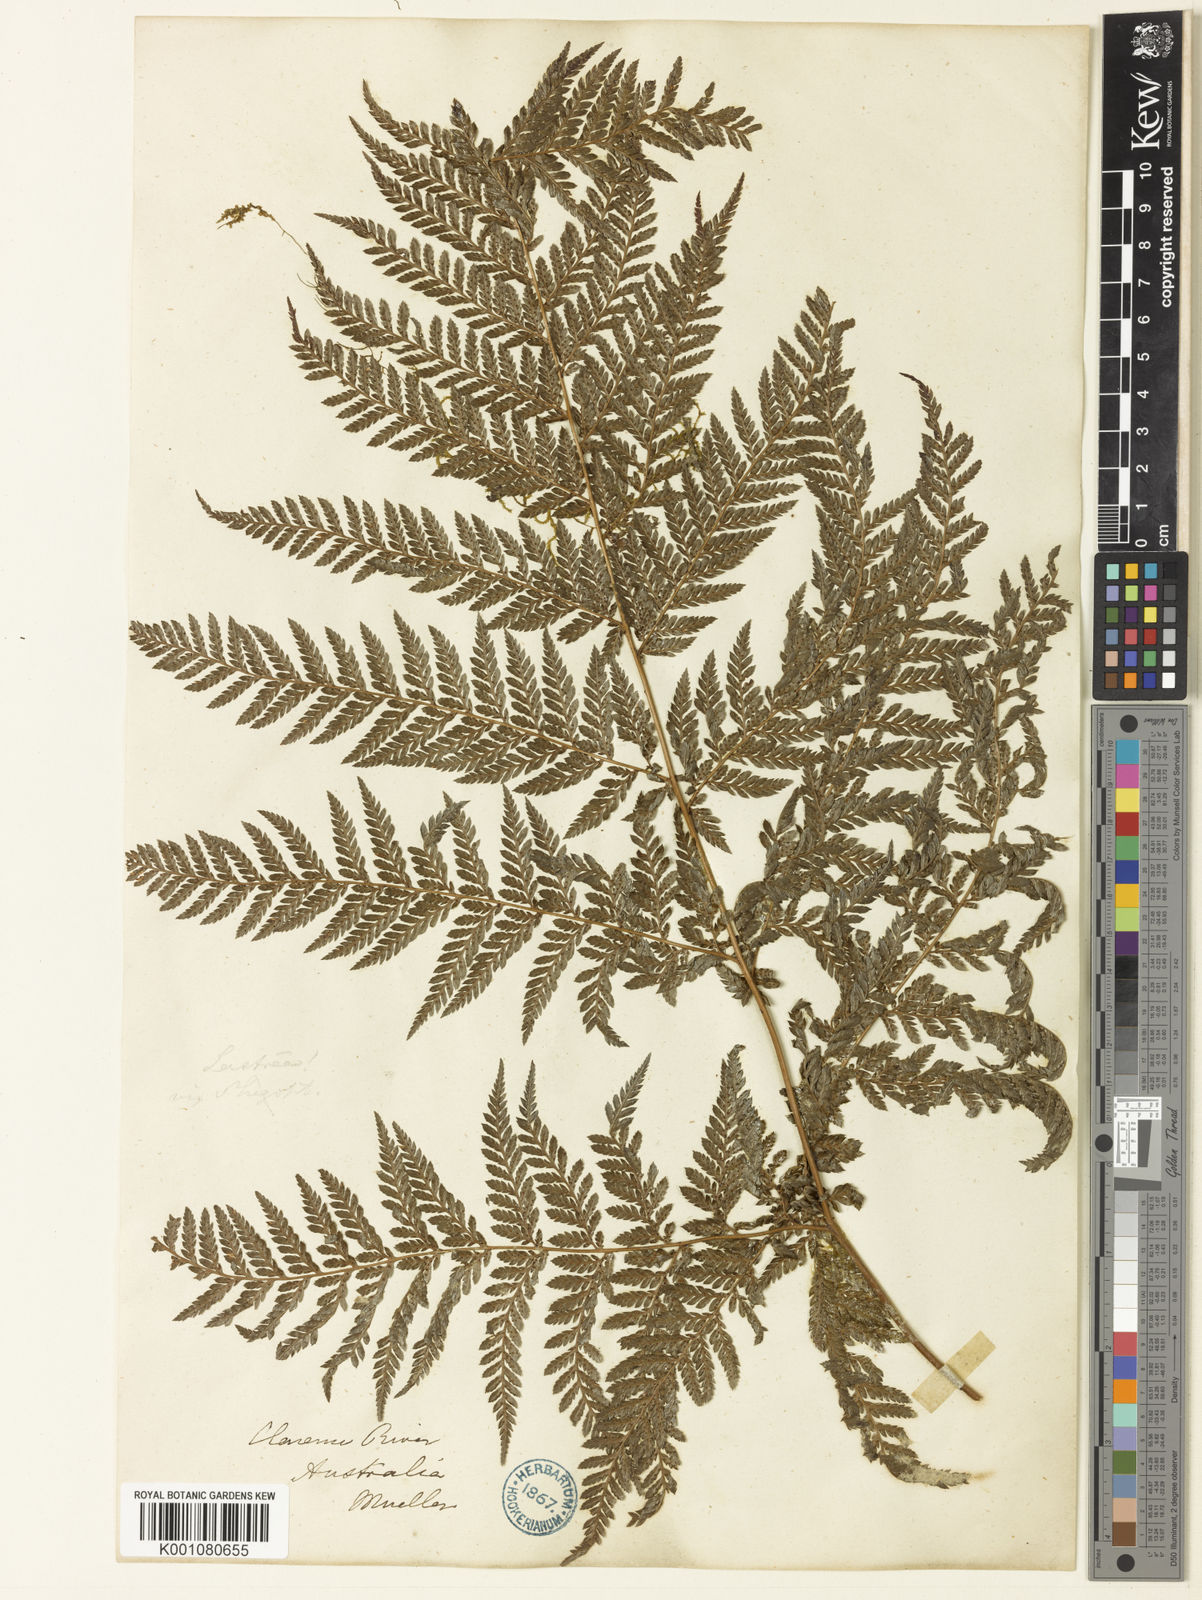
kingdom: Plantae
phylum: Tracheophyta
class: Polypodiopsida
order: Polypodiales
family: Dryopteridaceae
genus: Lastreopsis
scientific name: Lastreopsis decomposita
